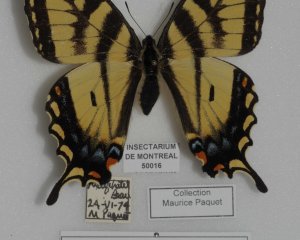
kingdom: Animalia
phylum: Arthropoda
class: Insecta
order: Lepidoptera
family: Papilionidae
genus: Pterourus
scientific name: Pterourus canadensis
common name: Canadian Tiger Swallowtail
